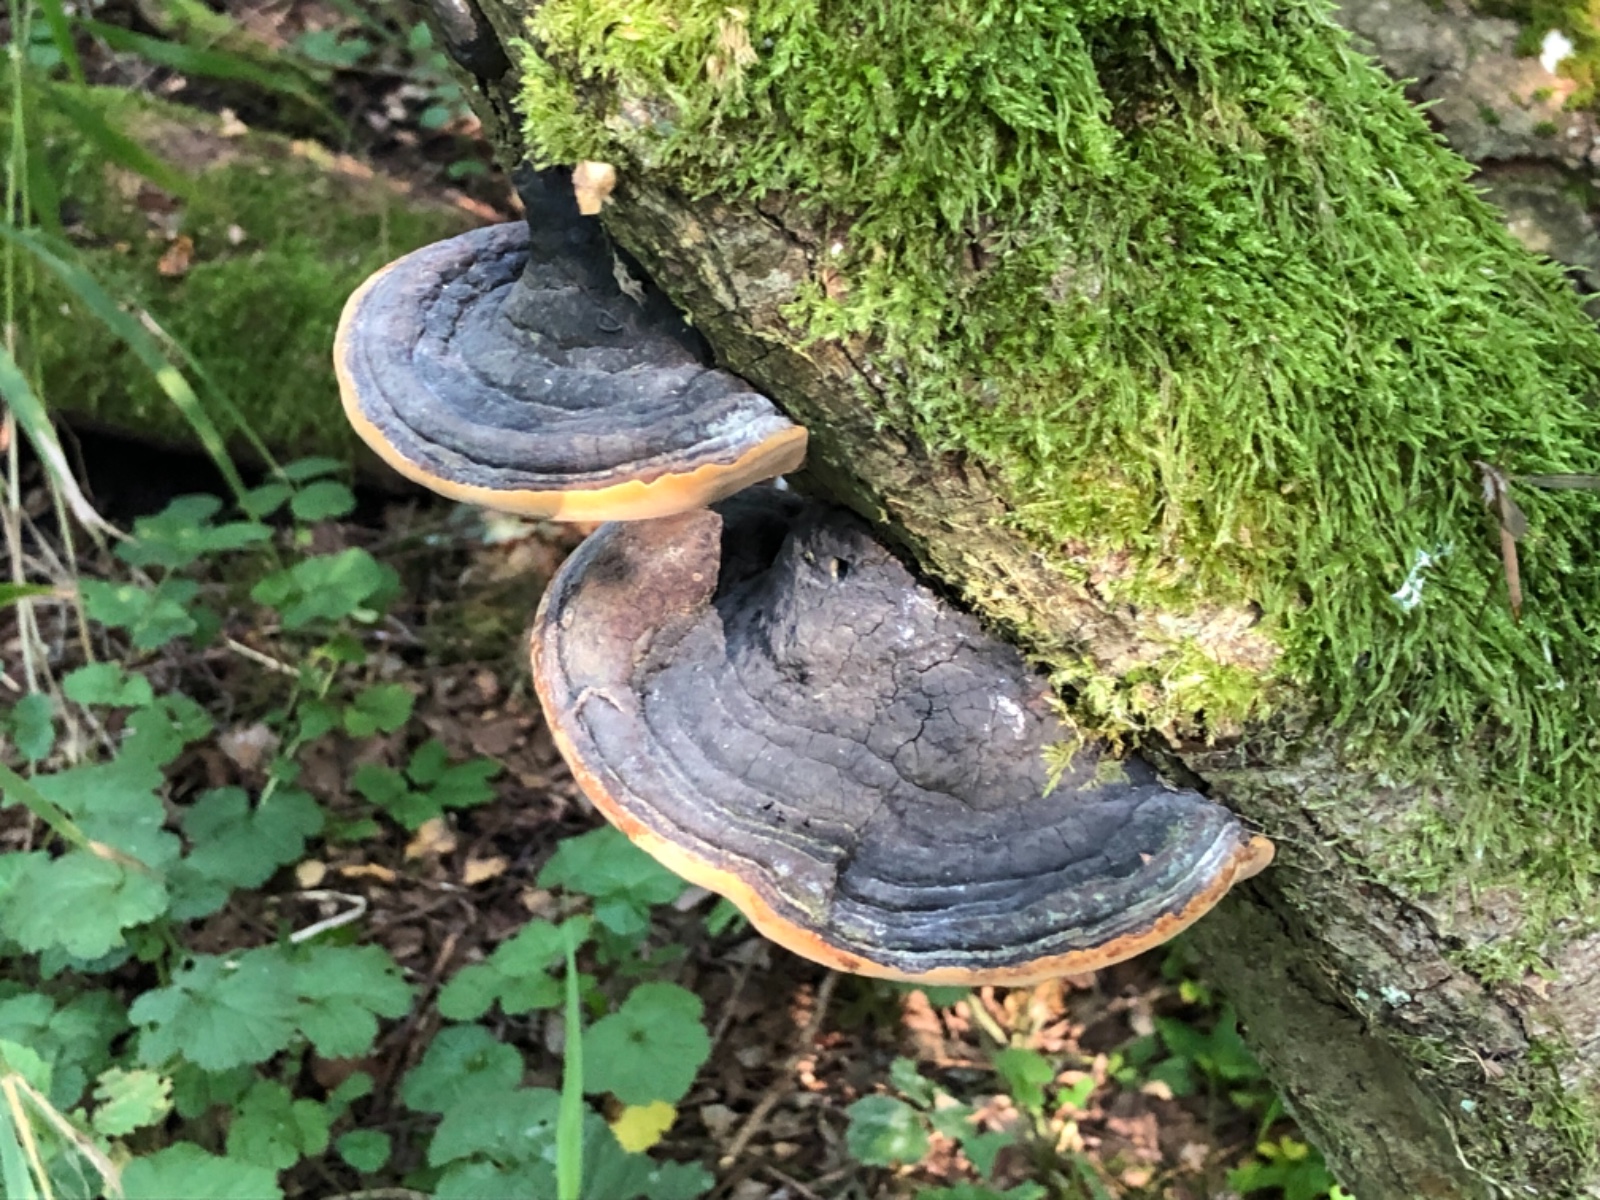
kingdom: Fungi
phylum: Basidiomycota
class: Agaricomycetes
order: Hymenochaetales
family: Hymenochaetaceae
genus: Phellinus
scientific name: Phellinus igniarius
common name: almindelig ildporesvamp
